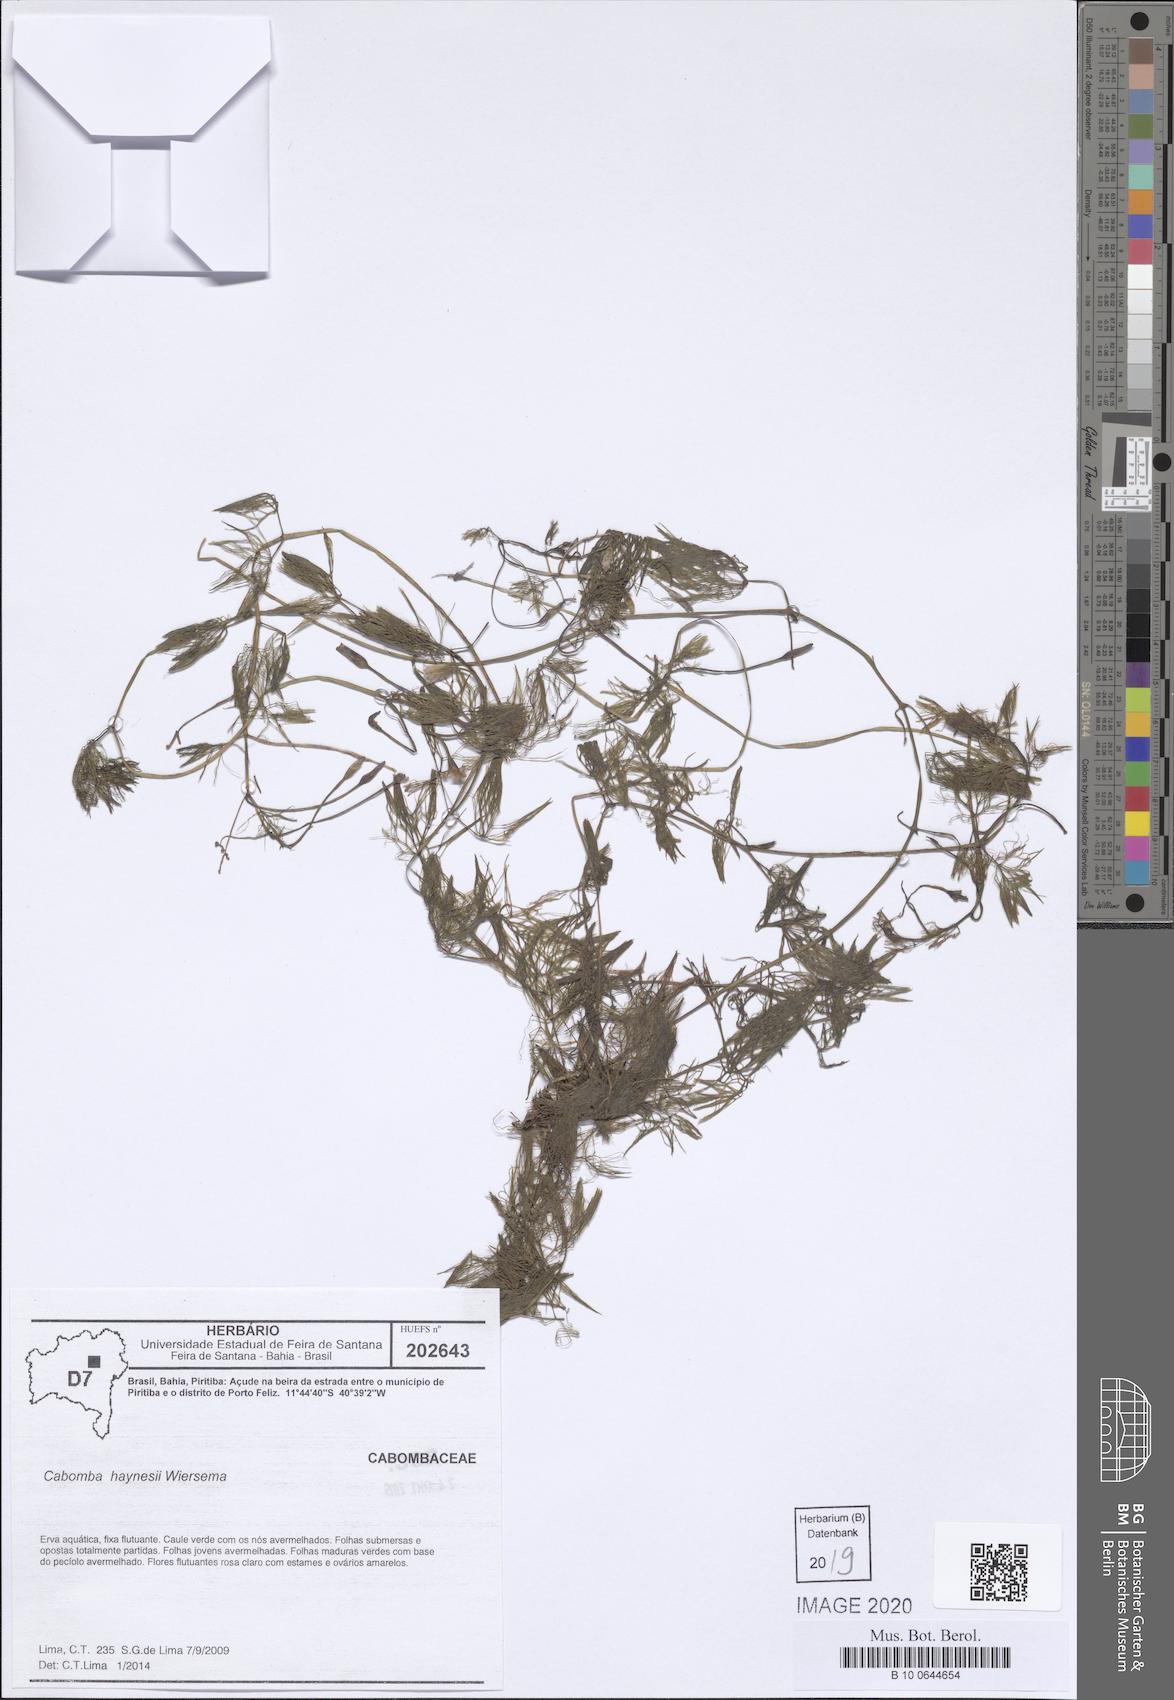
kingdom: Plantae
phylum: Tracheophyta
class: Magnoliopsida
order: Nymphaeales
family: Cabombaceae
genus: Cabomba
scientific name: Cabomba haynesii
